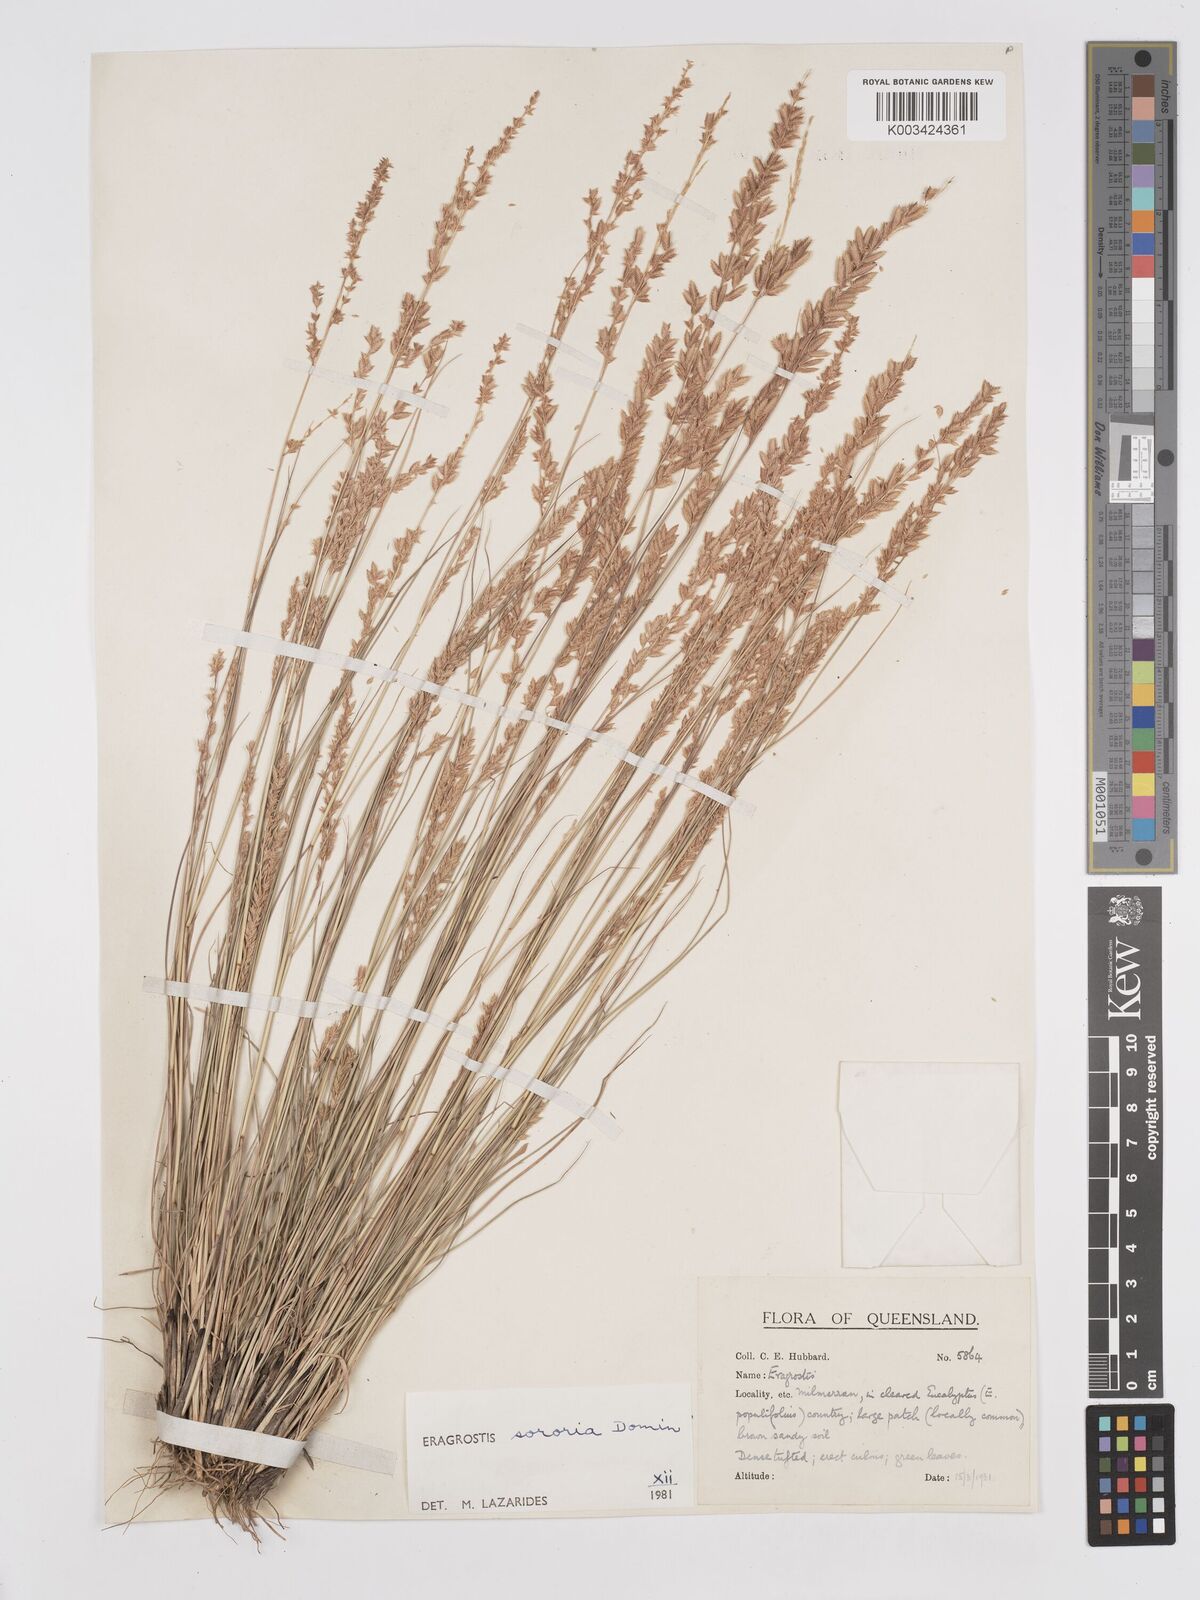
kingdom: Plantae
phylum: Tracheophyta
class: Liliopsida
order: Poales
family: Poaceae
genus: Eragrostis
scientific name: Eragrostis sororia
